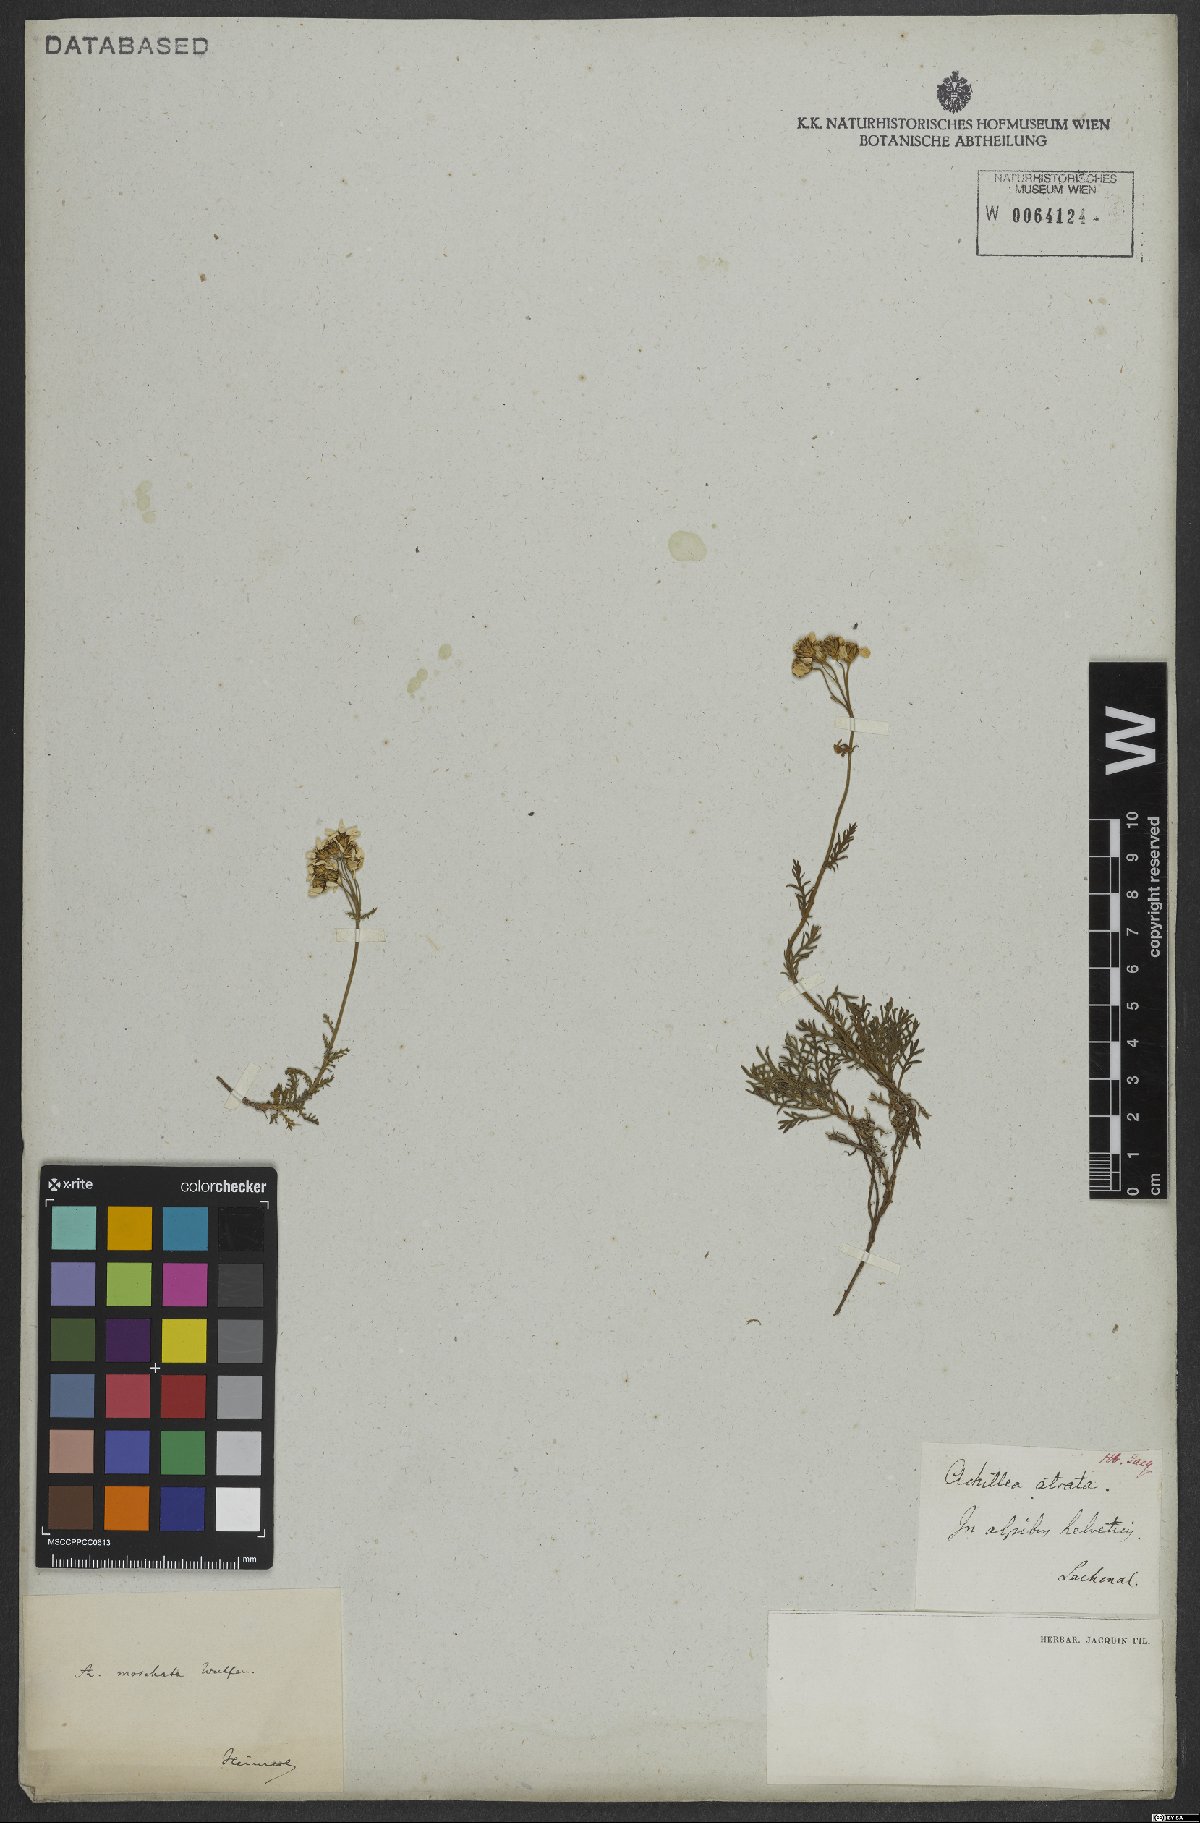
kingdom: Plantae
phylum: Tracheophyta
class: Magnoliopsida
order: Asterales
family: Asteraceae
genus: Achillea
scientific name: Achillea erba-rotta
